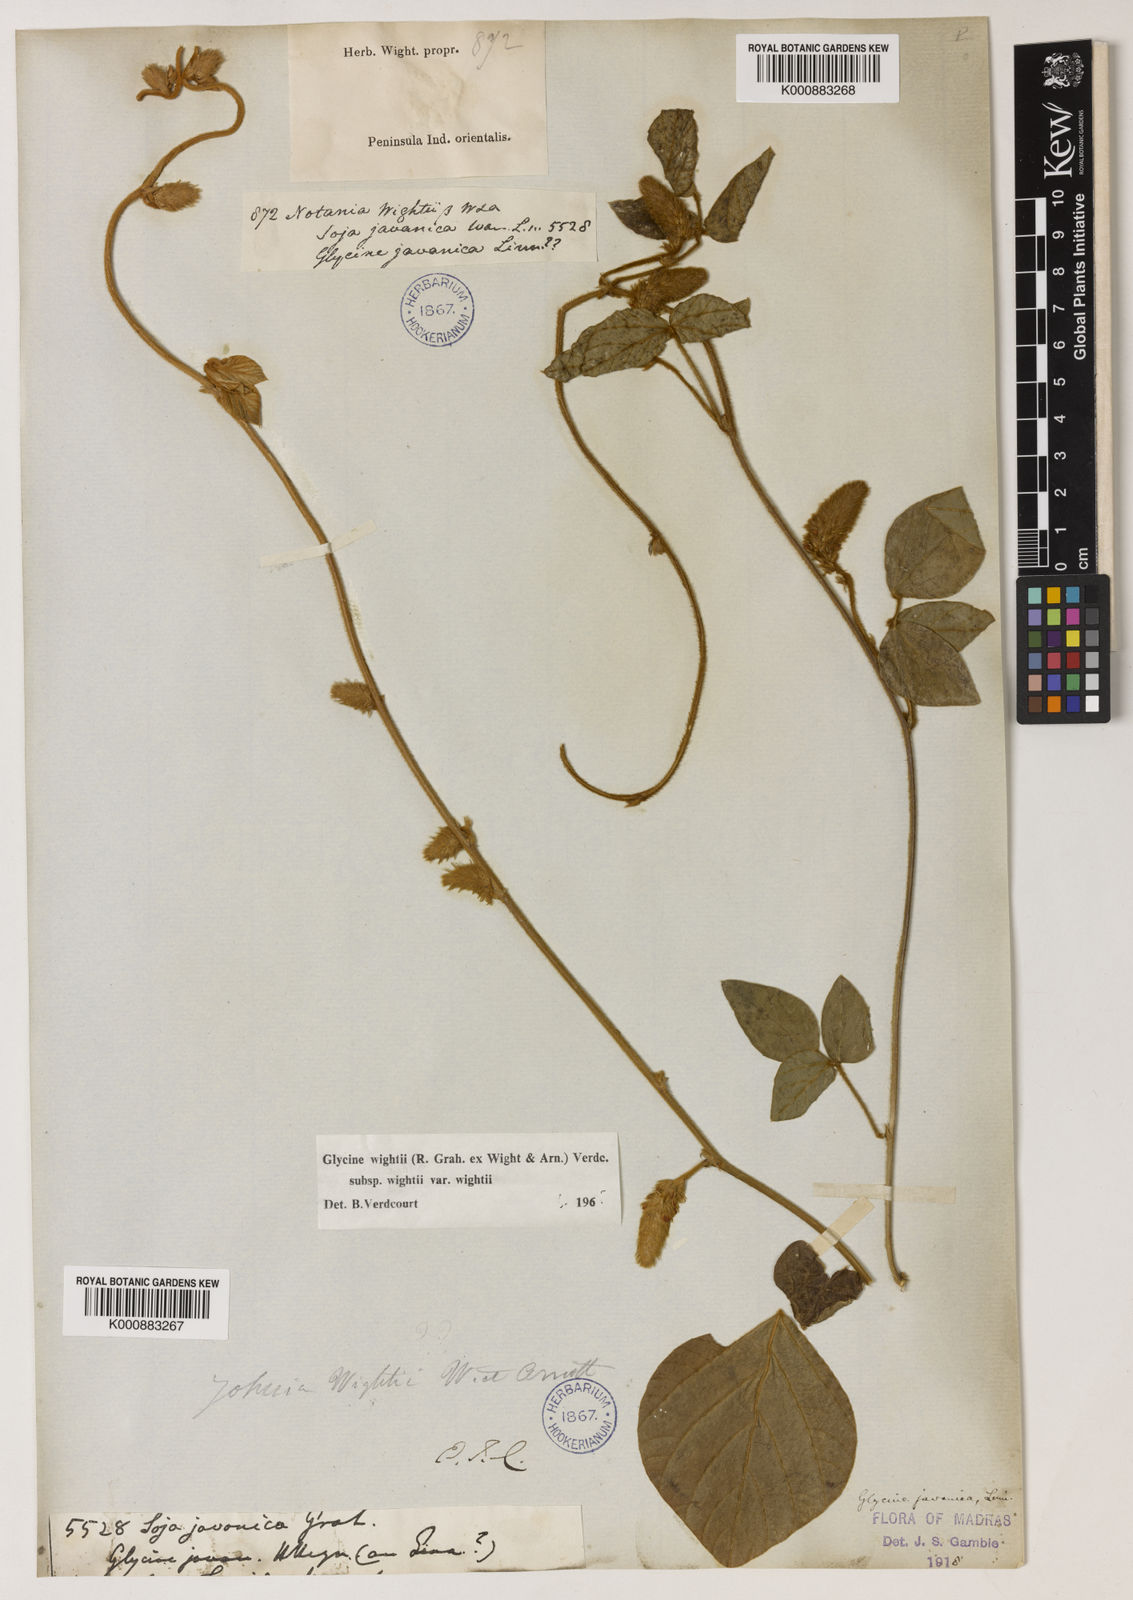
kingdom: Plantae
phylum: Tracheophyta
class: Magnoliopsida
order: Fabales
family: Fabaceae
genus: Pueraria
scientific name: Pueraria montana
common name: Kudzu
